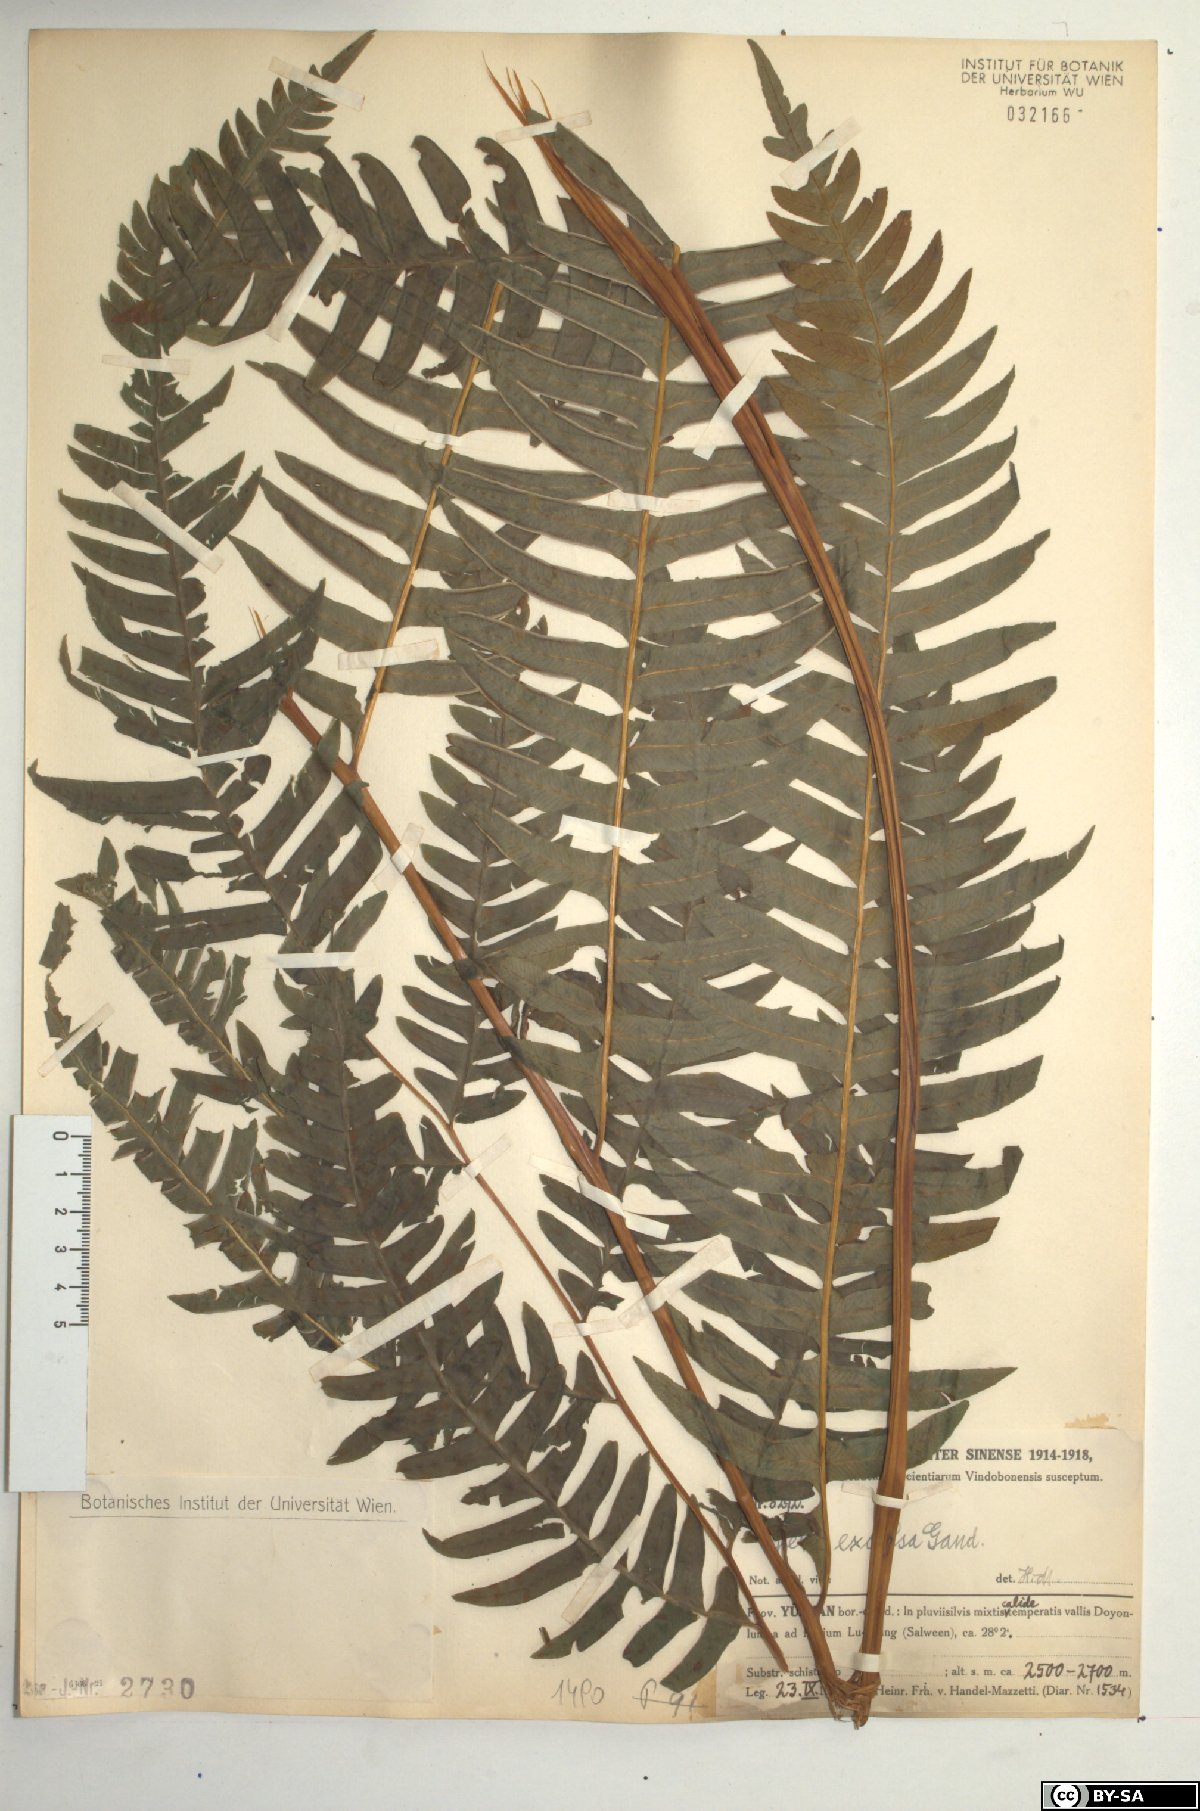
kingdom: Plantae
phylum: Tracheophyta
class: Polypodiopsida
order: Polypodiales
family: Pteridaceae
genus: Pteris
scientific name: Pteris terminalis
